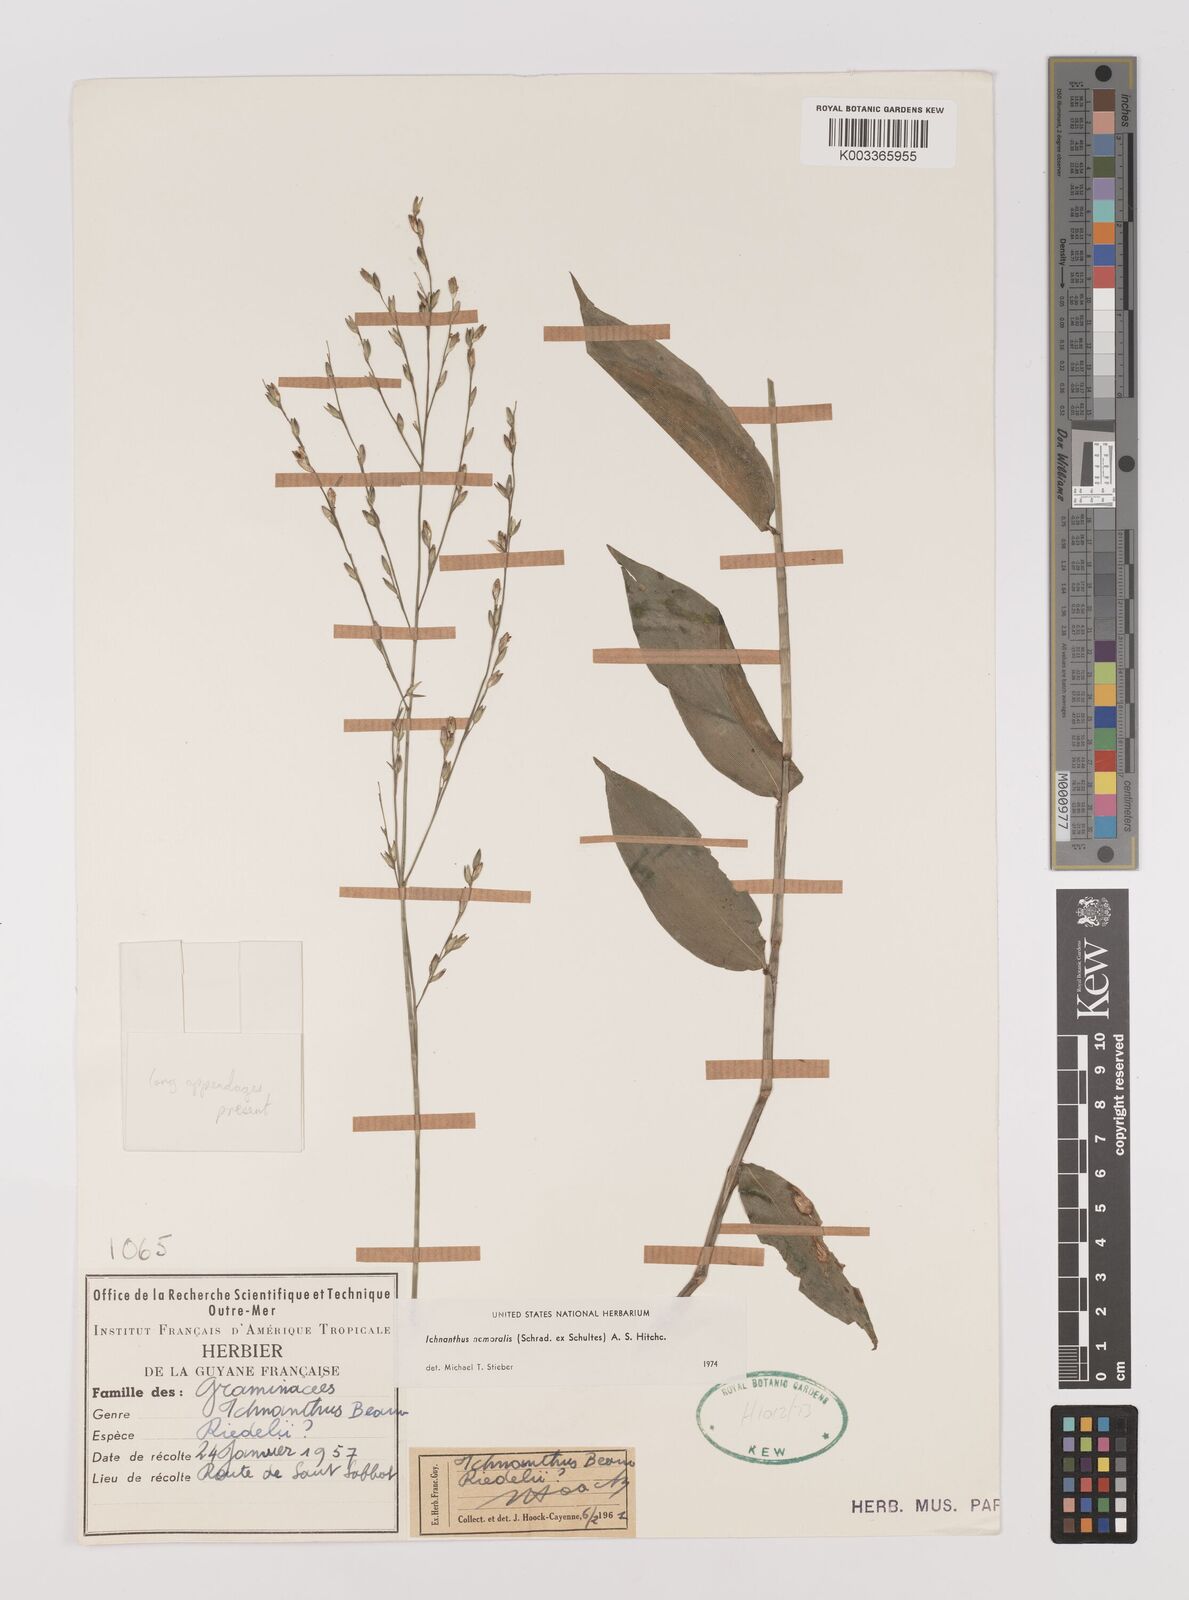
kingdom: Plantae
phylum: Tracheophyta
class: Liliopsida
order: Poales
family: Poaceae
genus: Ichnanthus
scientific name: Ichnanthus nemoralis
